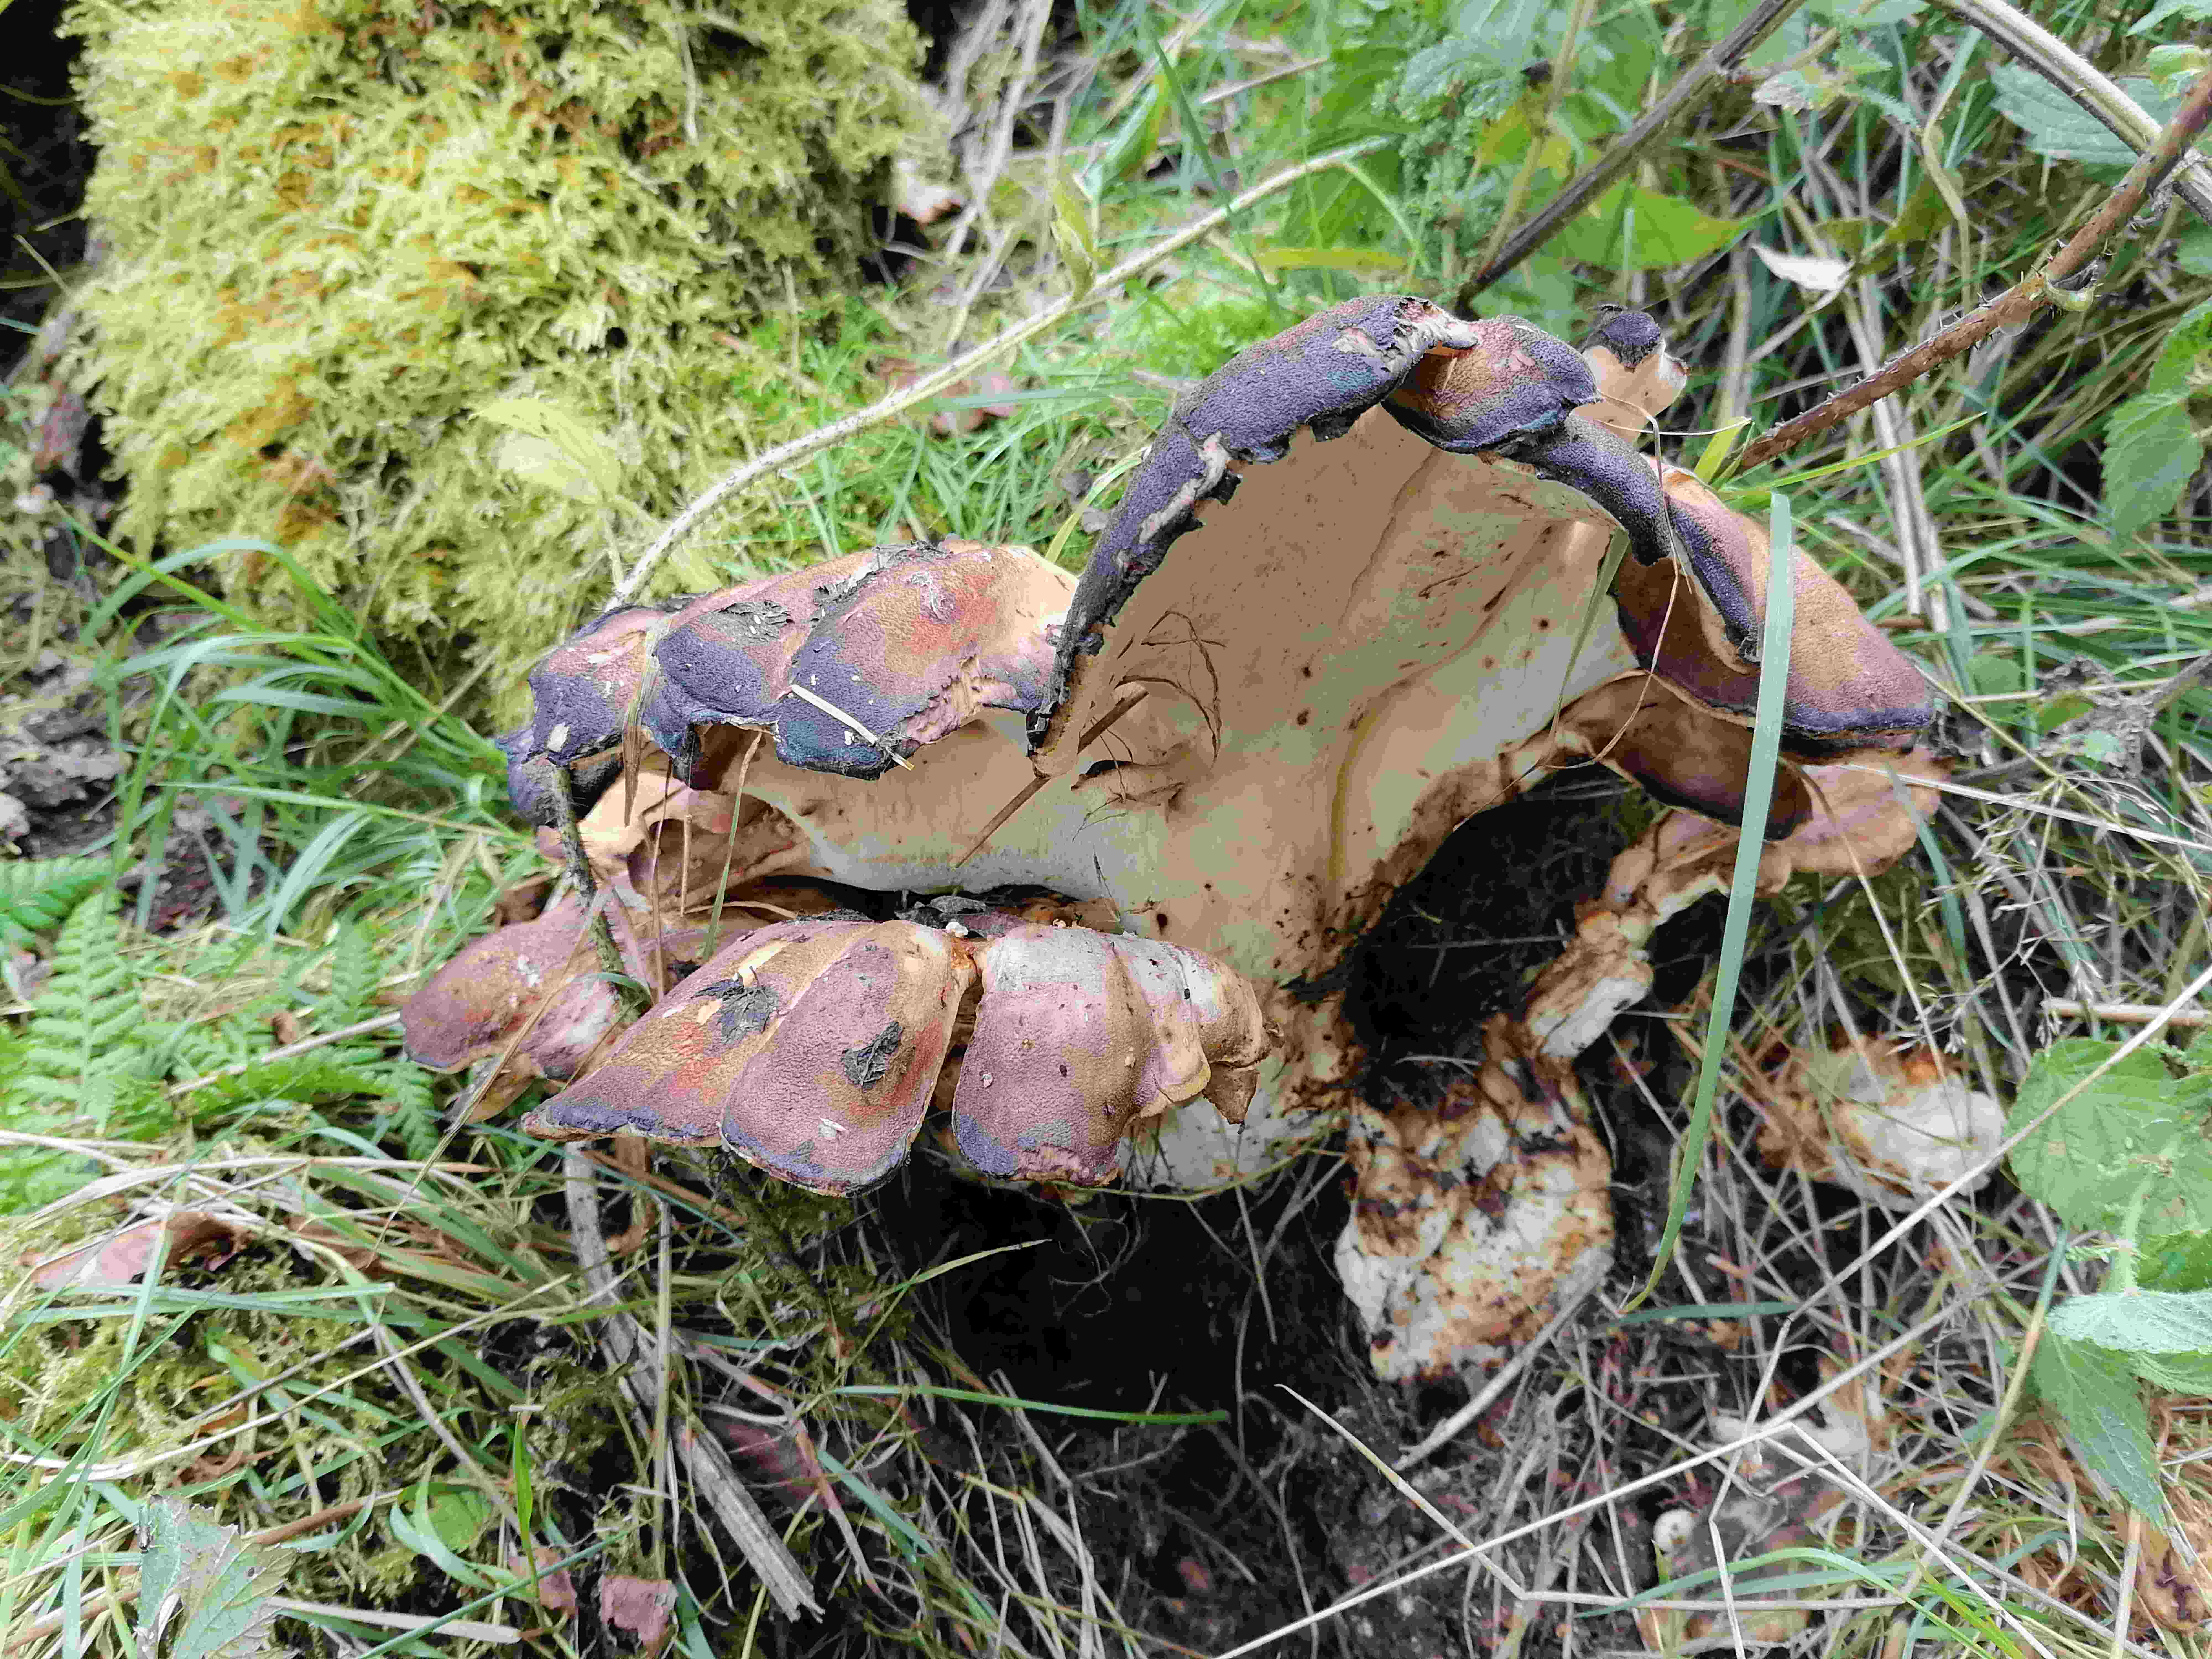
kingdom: Fungi
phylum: Basidiomycota
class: Agaricomycetes
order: Polyporales
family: Meripilaceae
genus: Meripilus
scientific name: Meripilus giganteus
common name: kæmpeporesvamp
